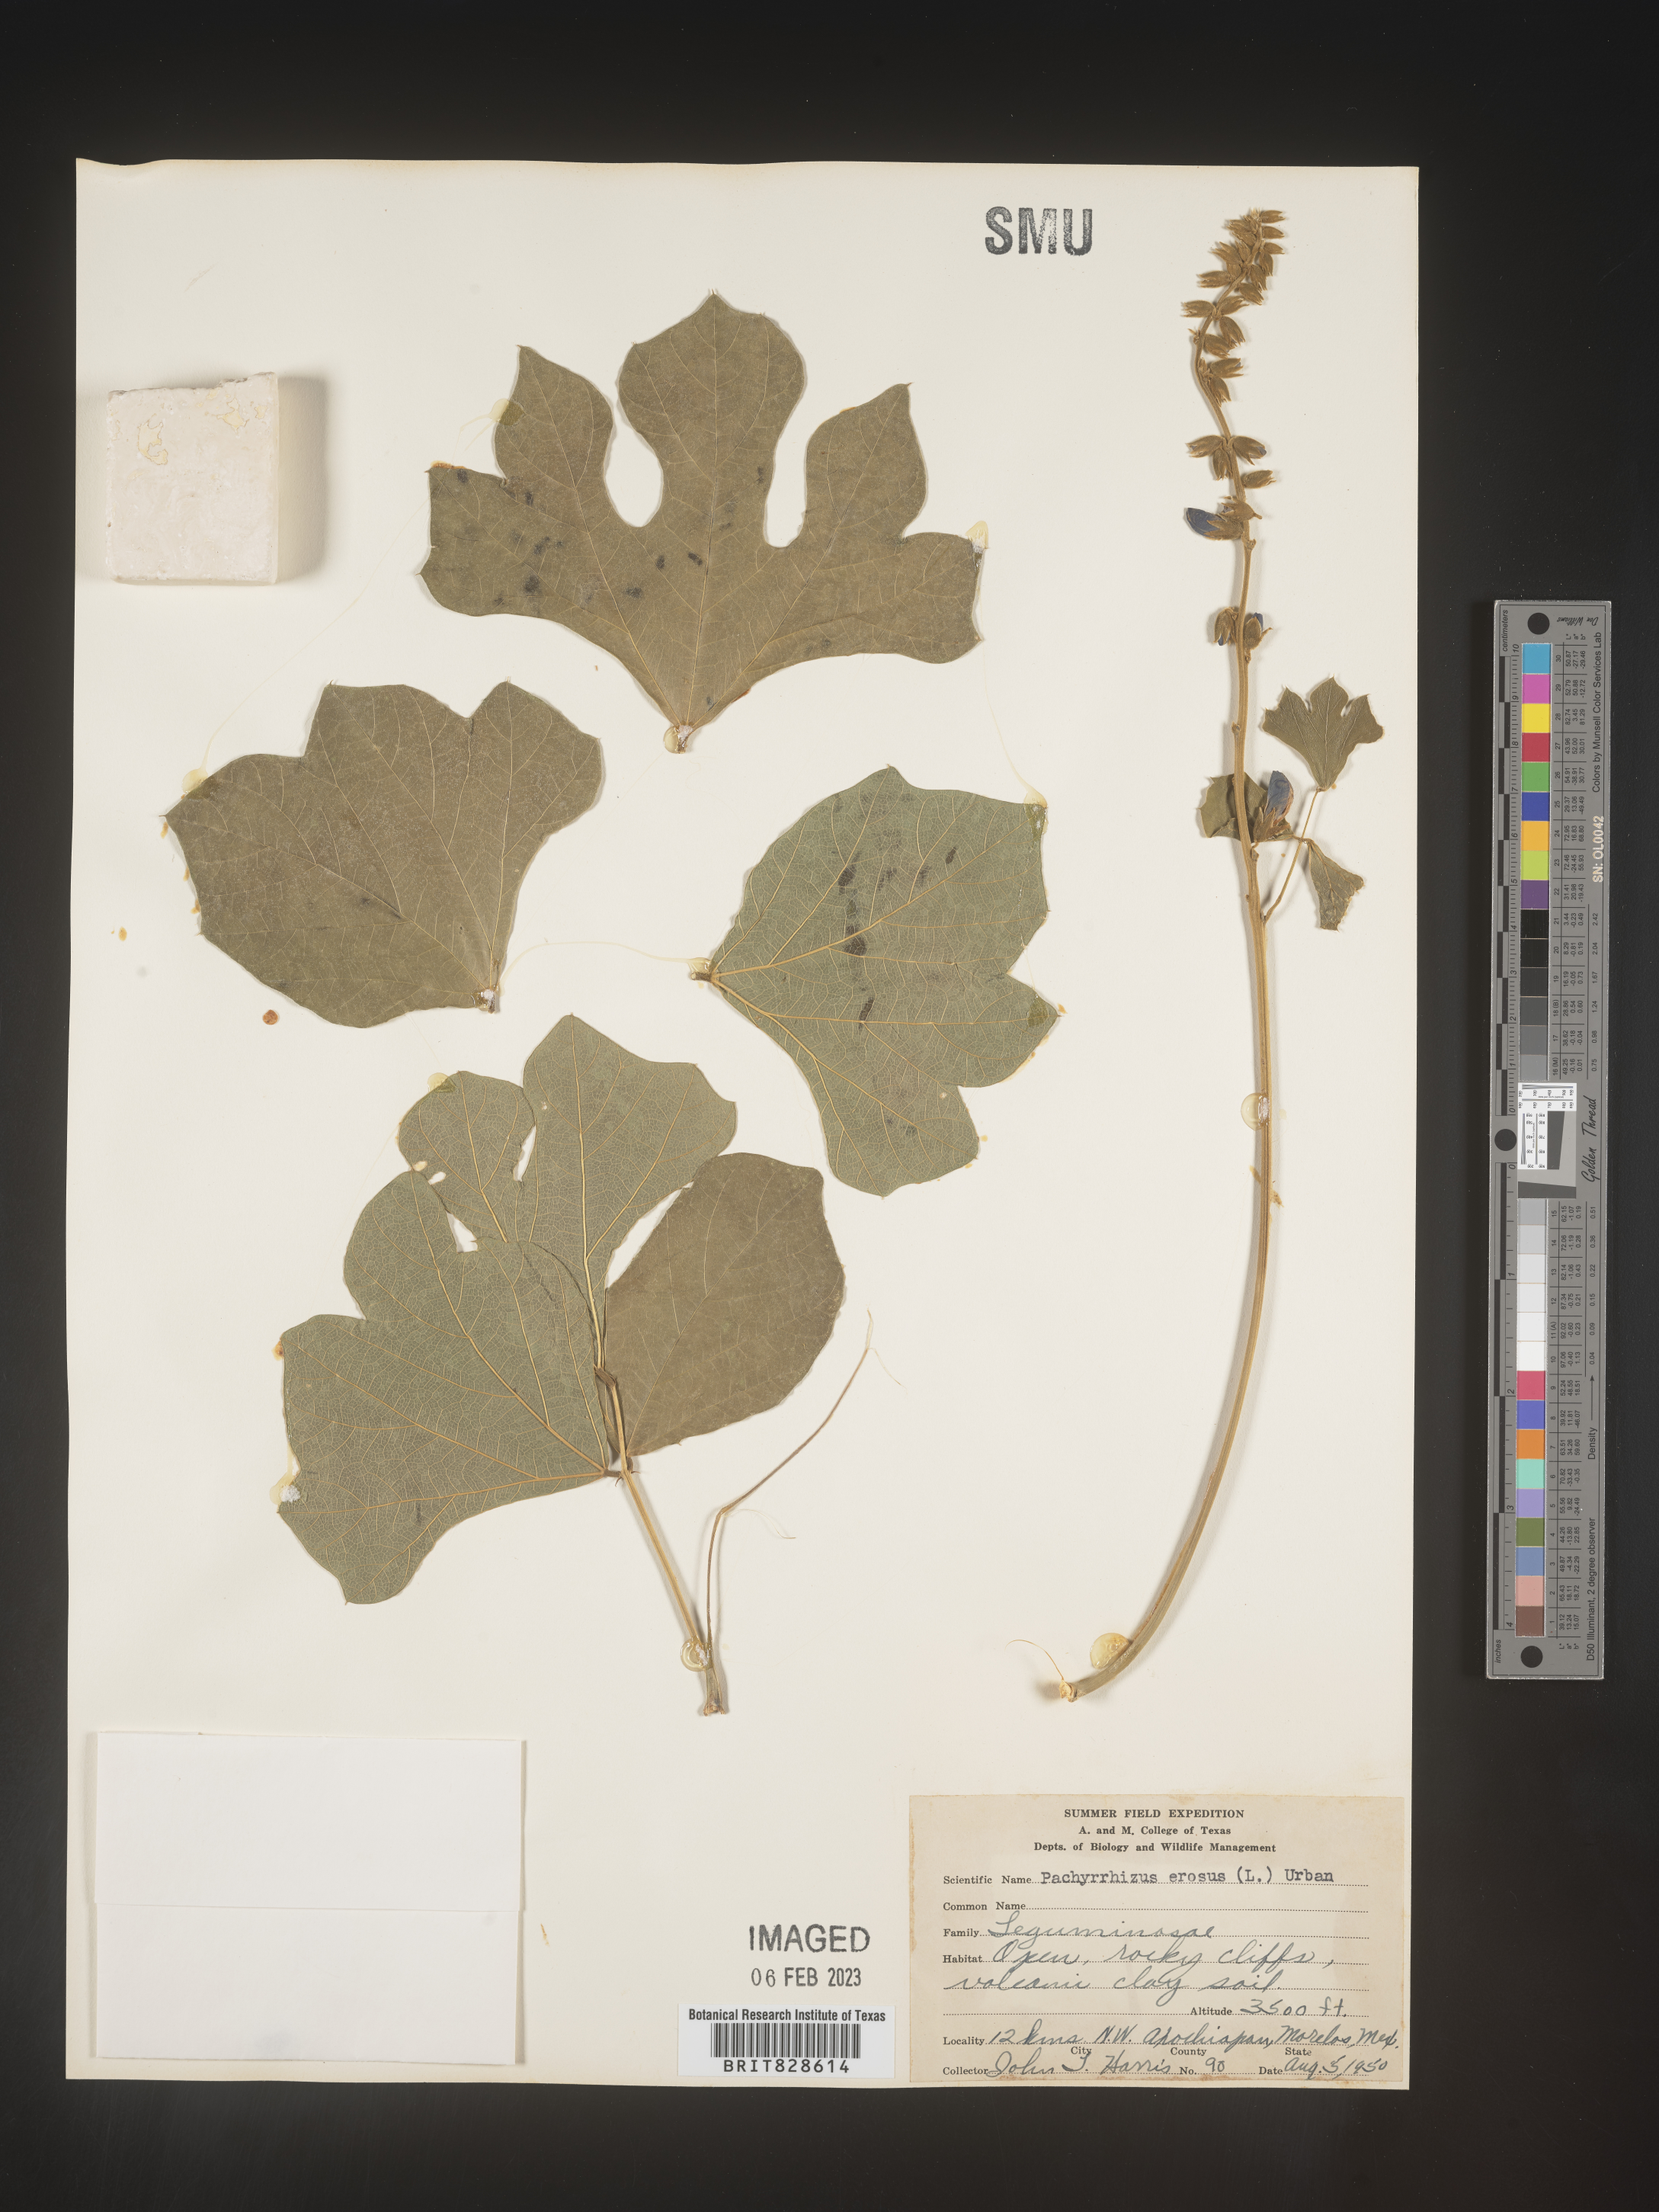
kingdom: Plantae
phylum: Tracheophyta
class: Magnoliopsida
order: Fabales
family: Fabaceae
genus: Pachyrhizus
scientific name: Pachyrhizus
